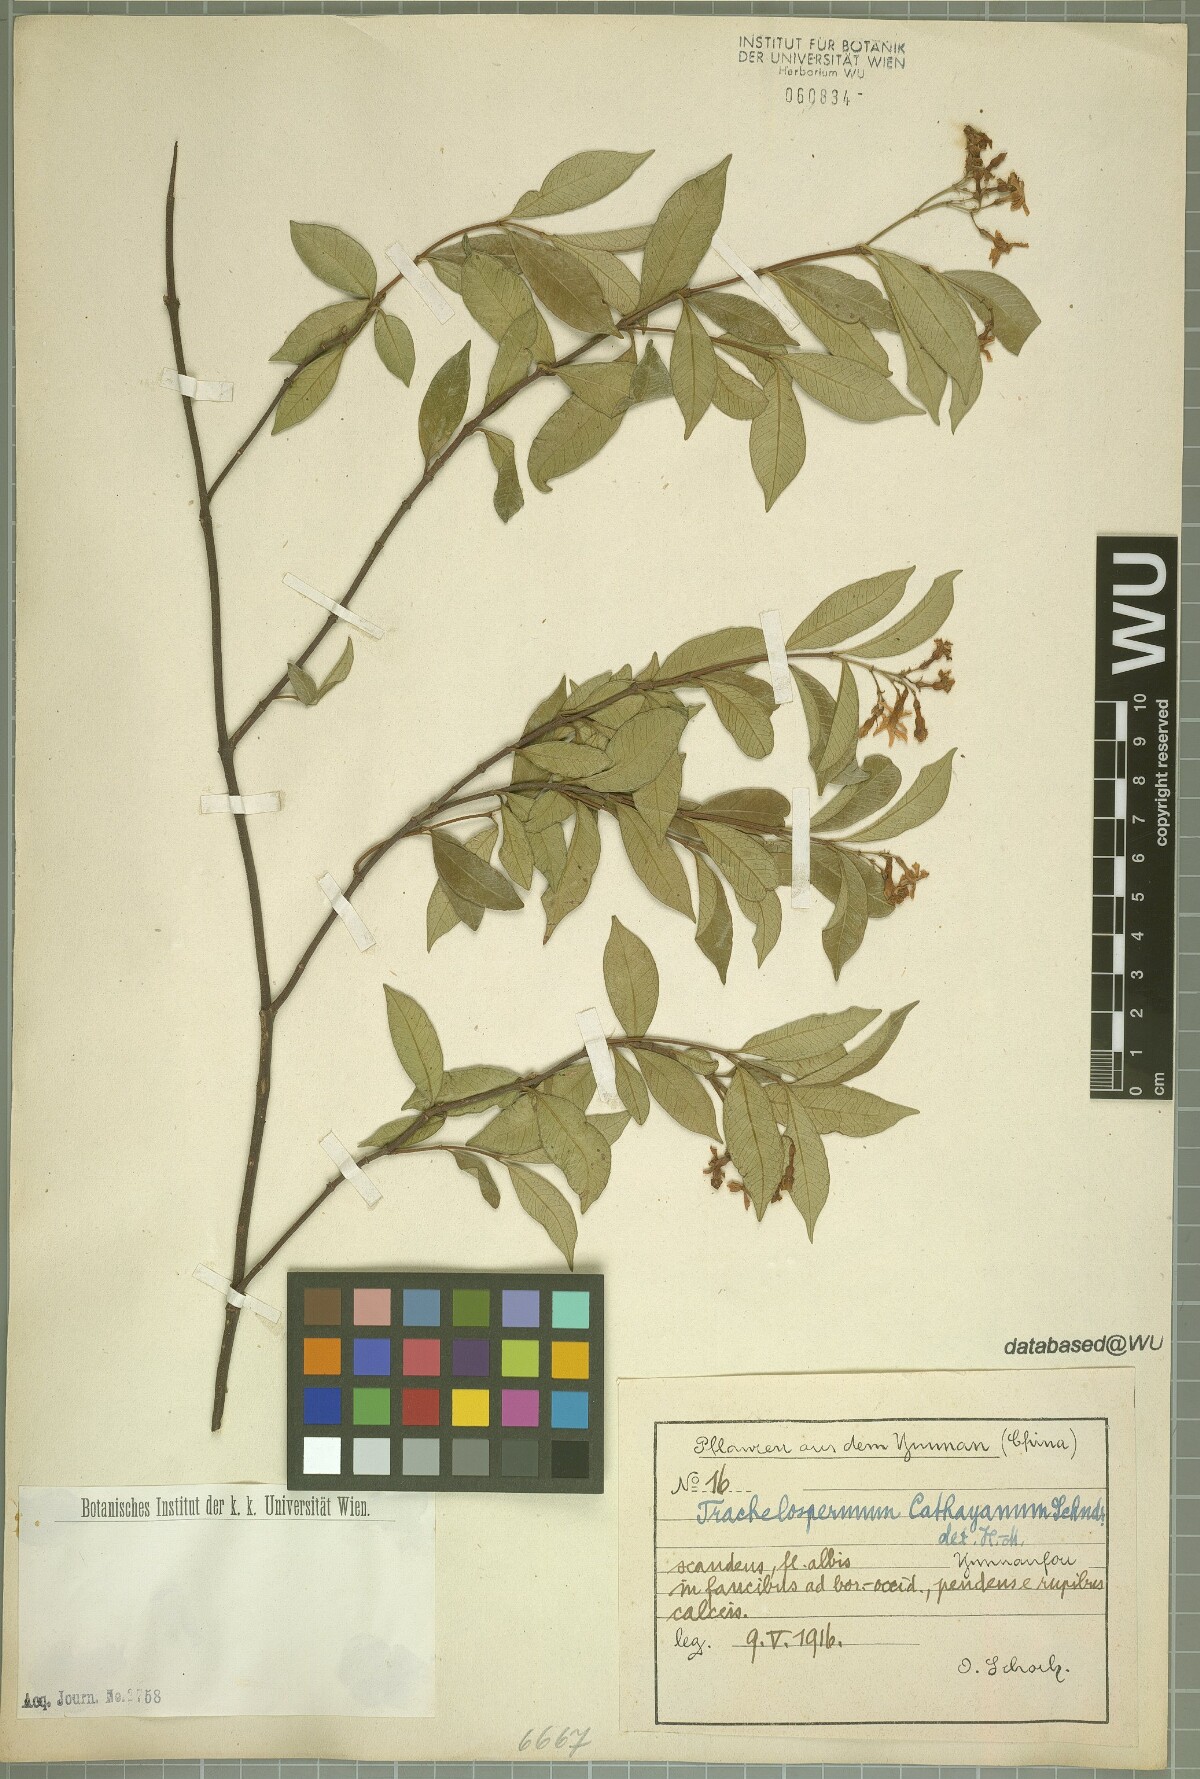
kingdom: Plantae
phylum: Tracheophyta
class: Magnoliopsida
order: Gentianales
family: Apocynaceae
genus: Trachelospermum
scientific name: Trachelospermum bodinieri
